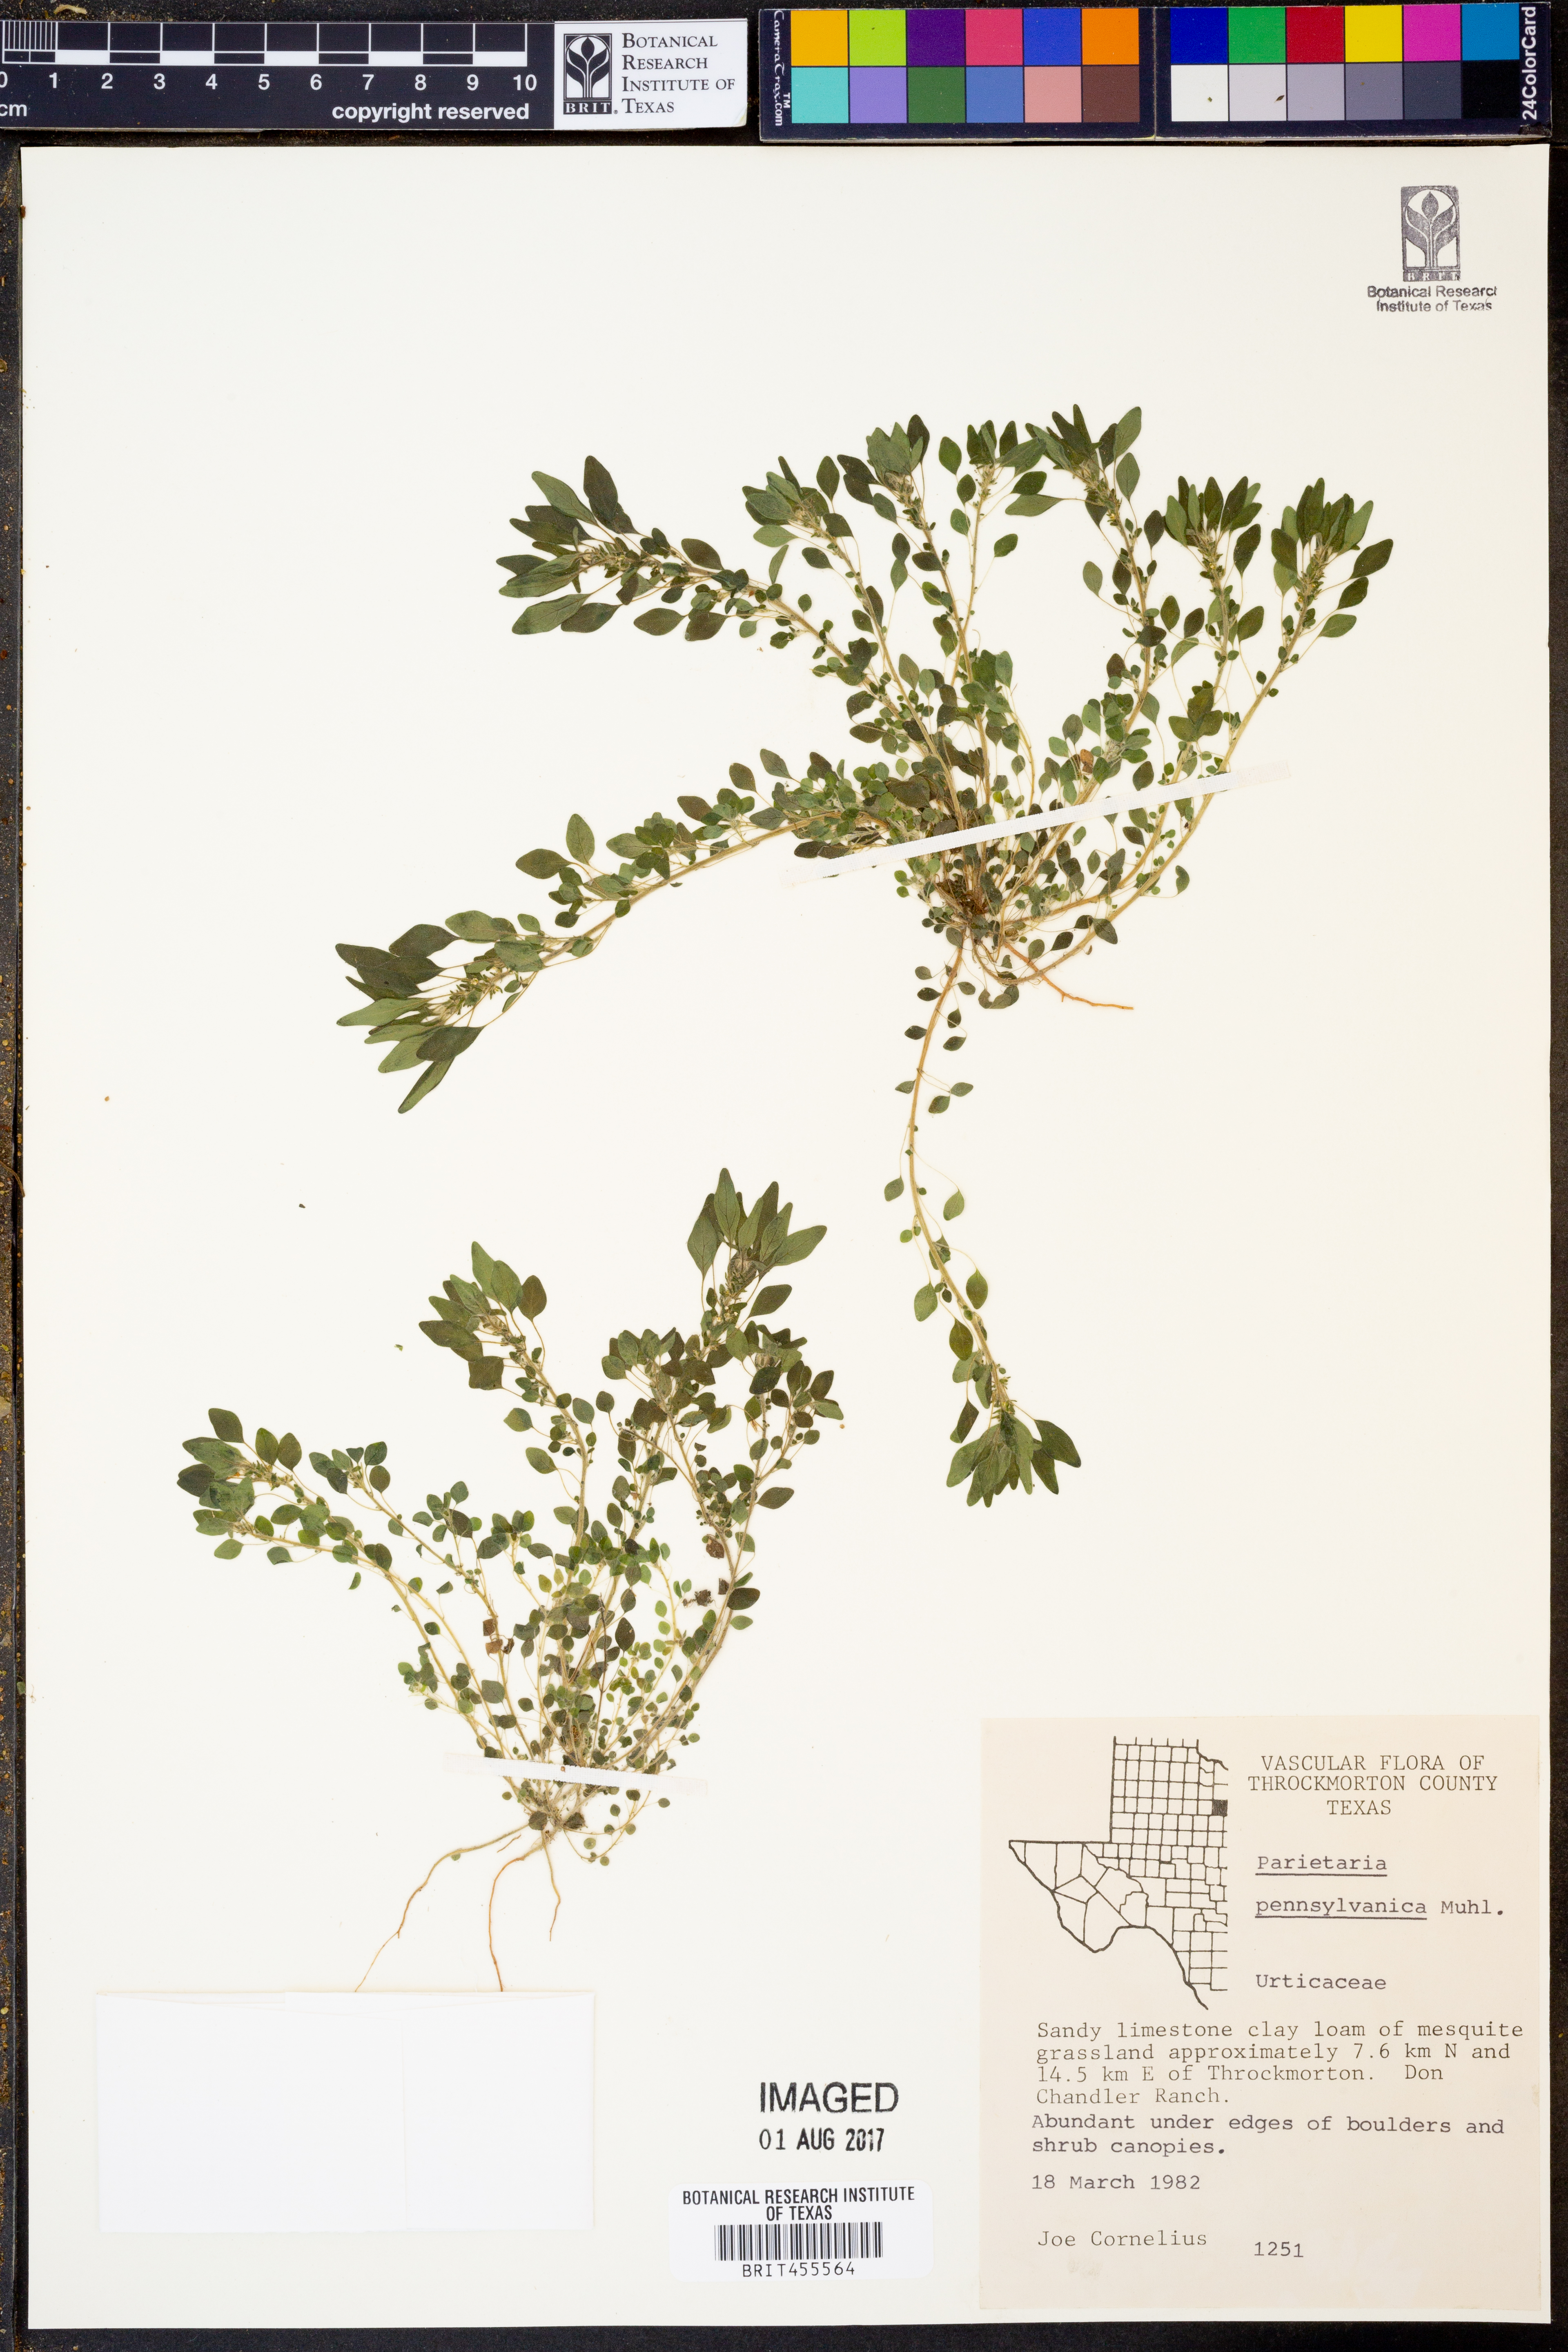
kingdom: Plantae
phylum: Tracheophyta
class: Magnoliopsida
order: Rosales
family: Urticaceae
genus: Parietaria
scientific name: Parietaria pensylvanica
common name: Pennsylvania pellitory
